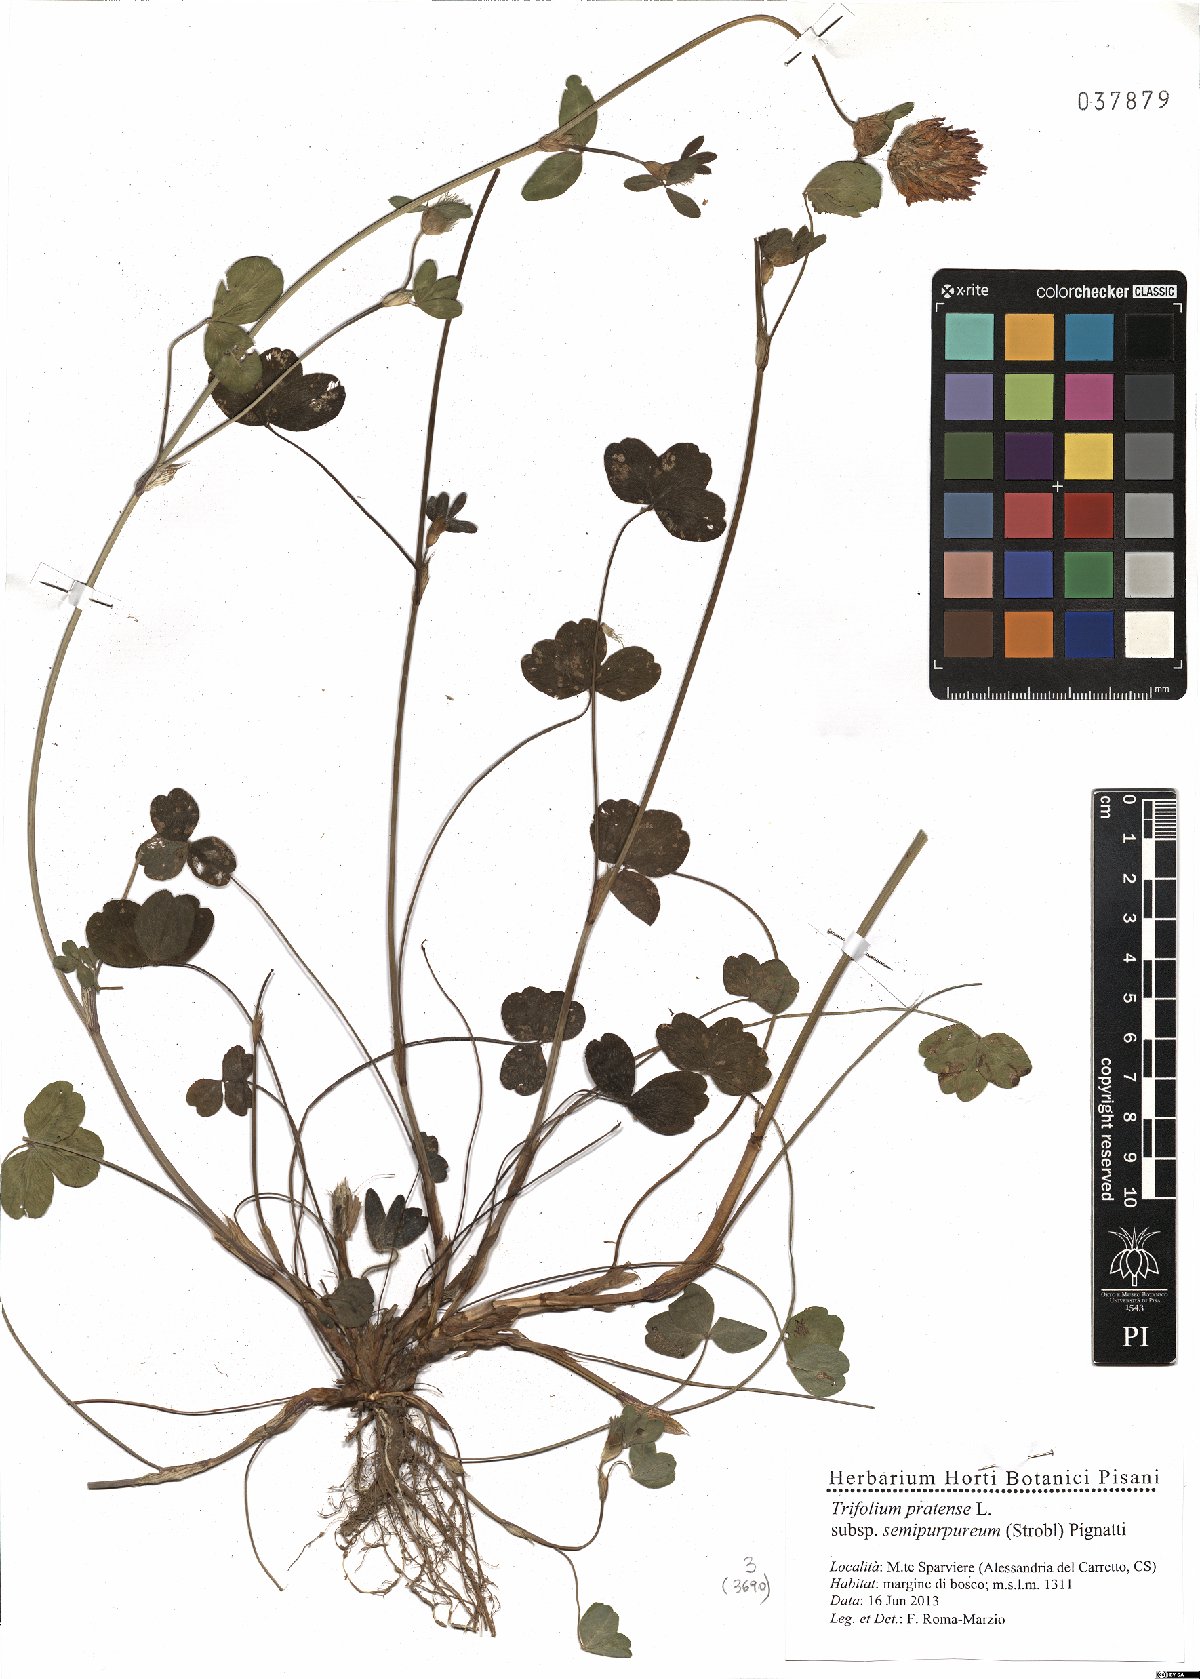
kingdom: Plantae
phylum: Tracheophyta
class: Magnoliopsida
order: Fabales
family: Fabaceae
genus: Trifolium
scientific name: Trifolium pratense
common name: Red clover
